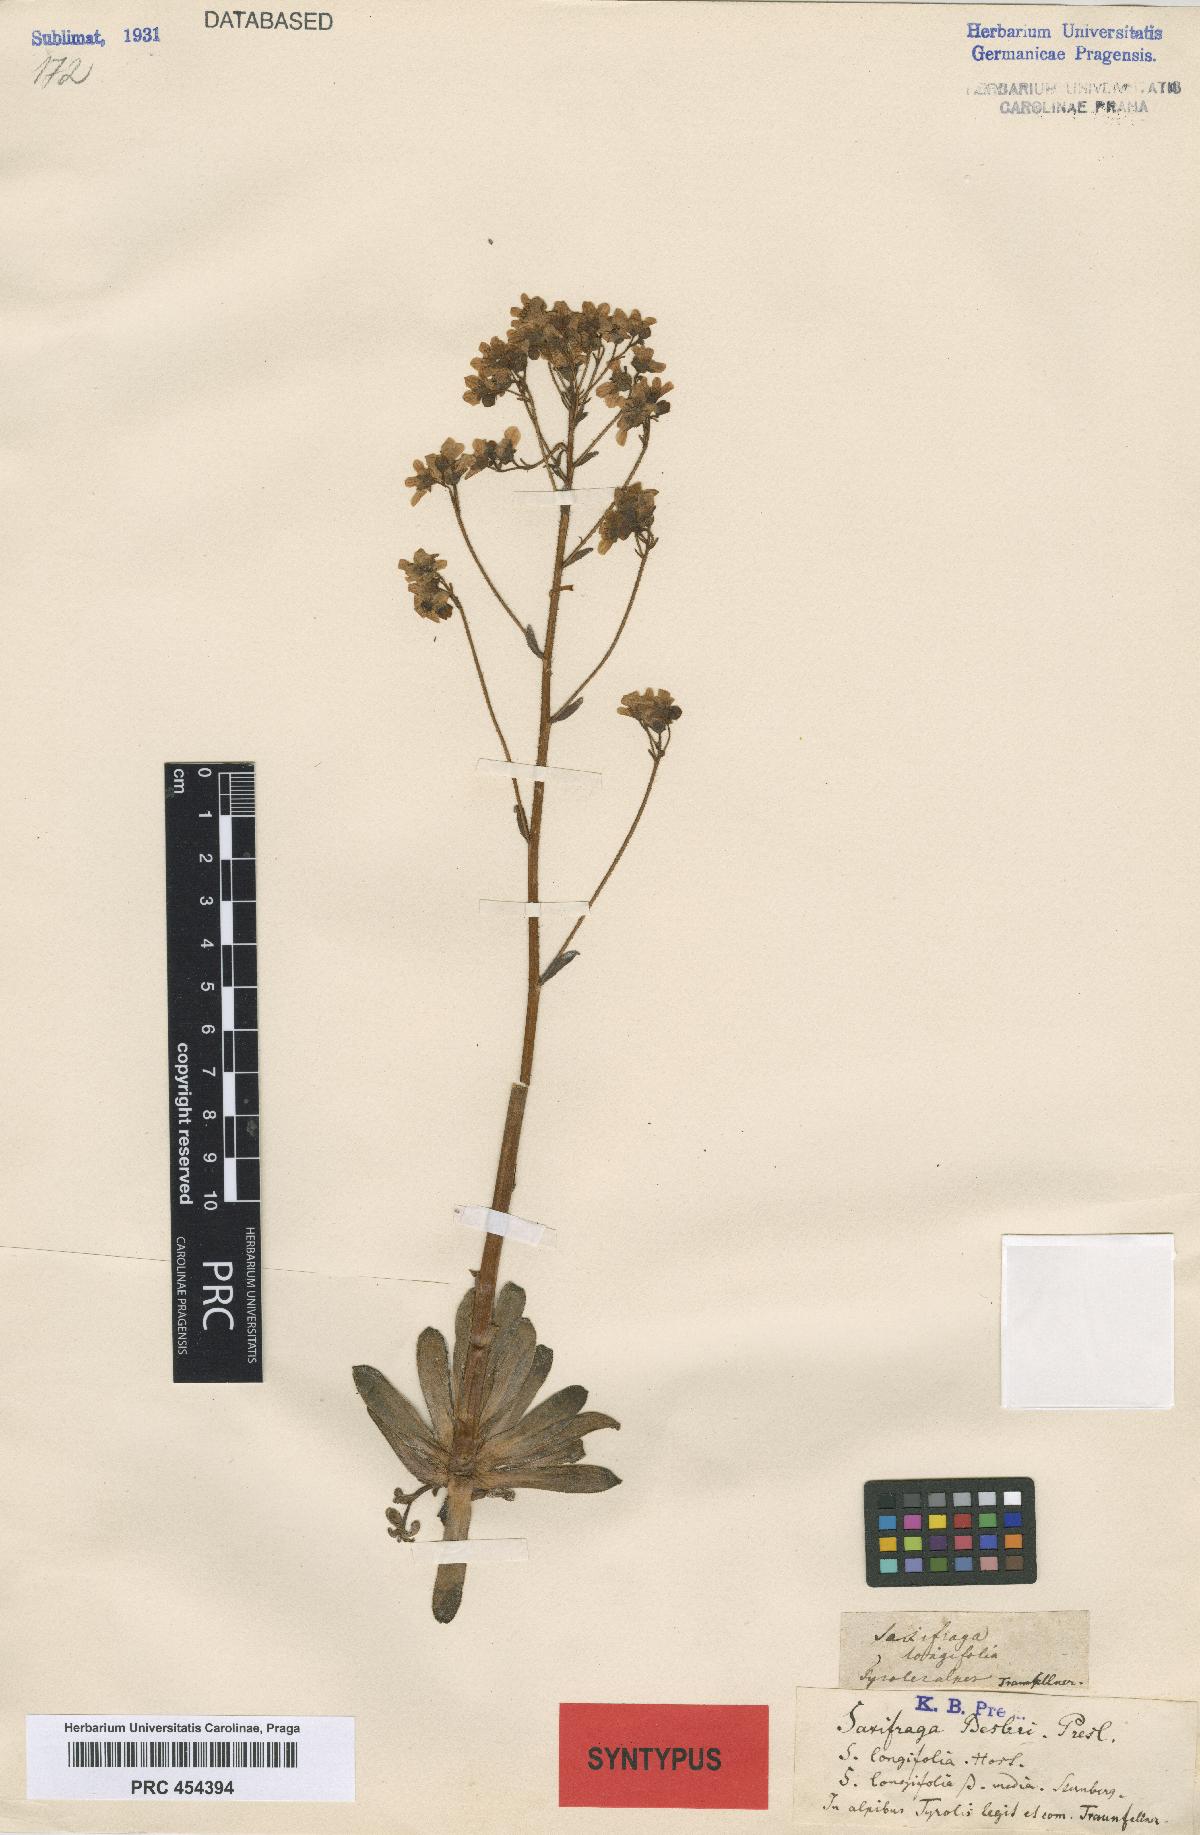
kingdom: Plantae
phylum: Tracheophyta
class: Magnoliopsida
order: Saxifragales
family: Saxifragaceae
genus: Saxifraga
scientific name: Saxifraga hostii
